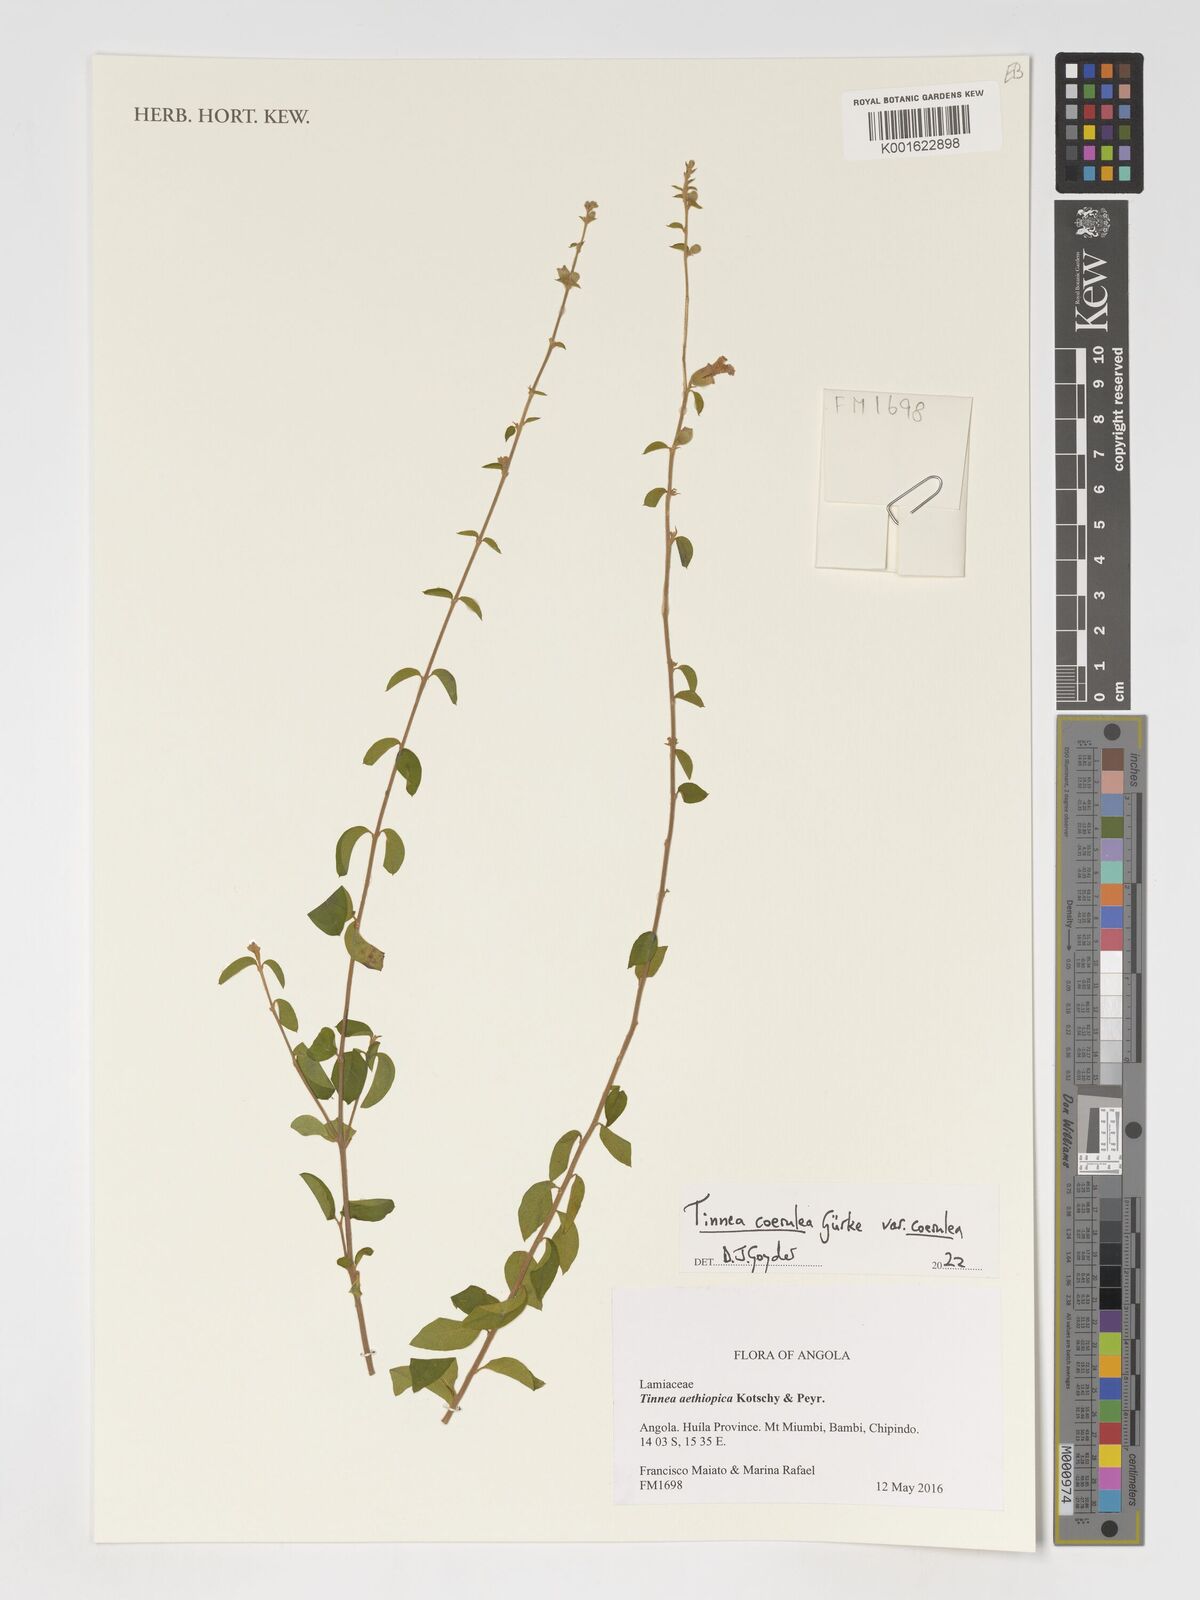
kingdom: Plantae
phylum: Tracheophyta
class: Magnoliopsida
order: Lamiales
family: Lamiaceae
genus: Tinnea
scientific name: Tinnea coerulea
